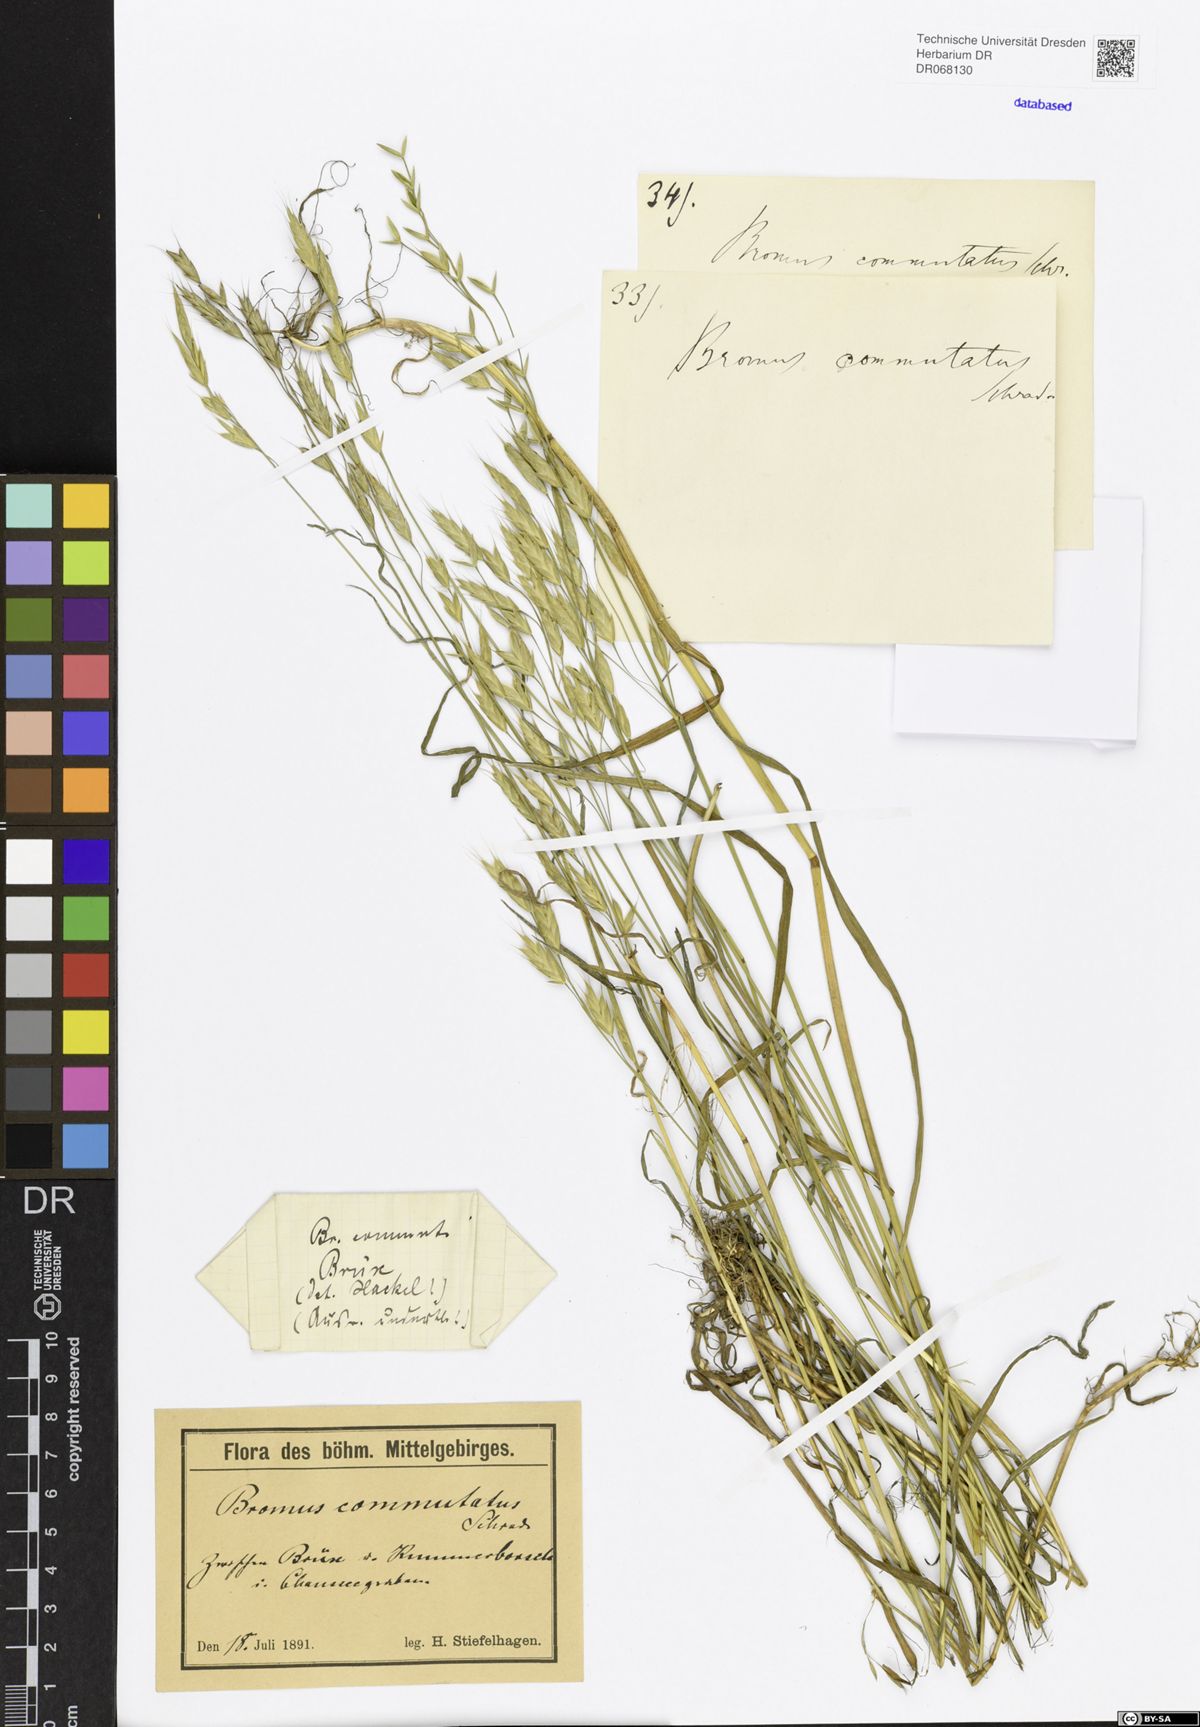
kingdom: Plantae
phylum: Tracheophyta
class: Liliopsida
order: Poales
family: Poaceae
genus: Bromus
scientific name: Bromus commutatus
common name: Meadow brome
